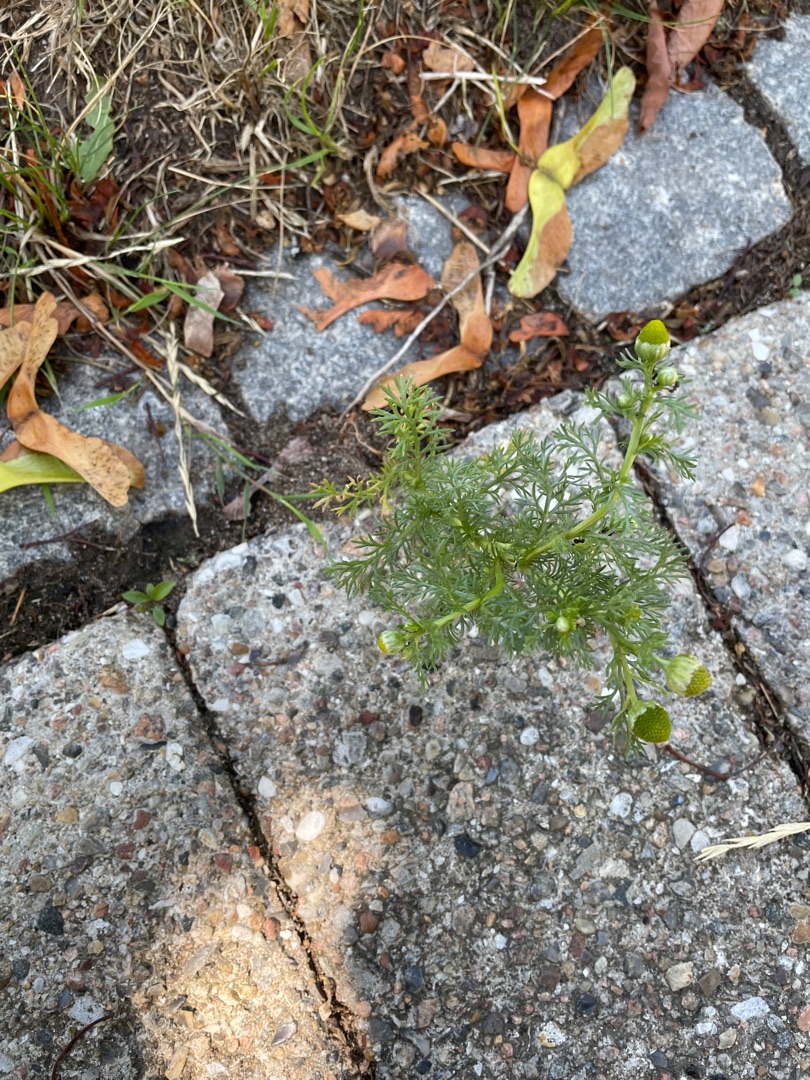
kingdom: Plantae
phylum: Tracheophyta
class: Magnoliopsida
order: Asterales
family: Asteraceae
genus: Matricaria
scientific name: Matricaria discoidea
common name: Skive-kamille
